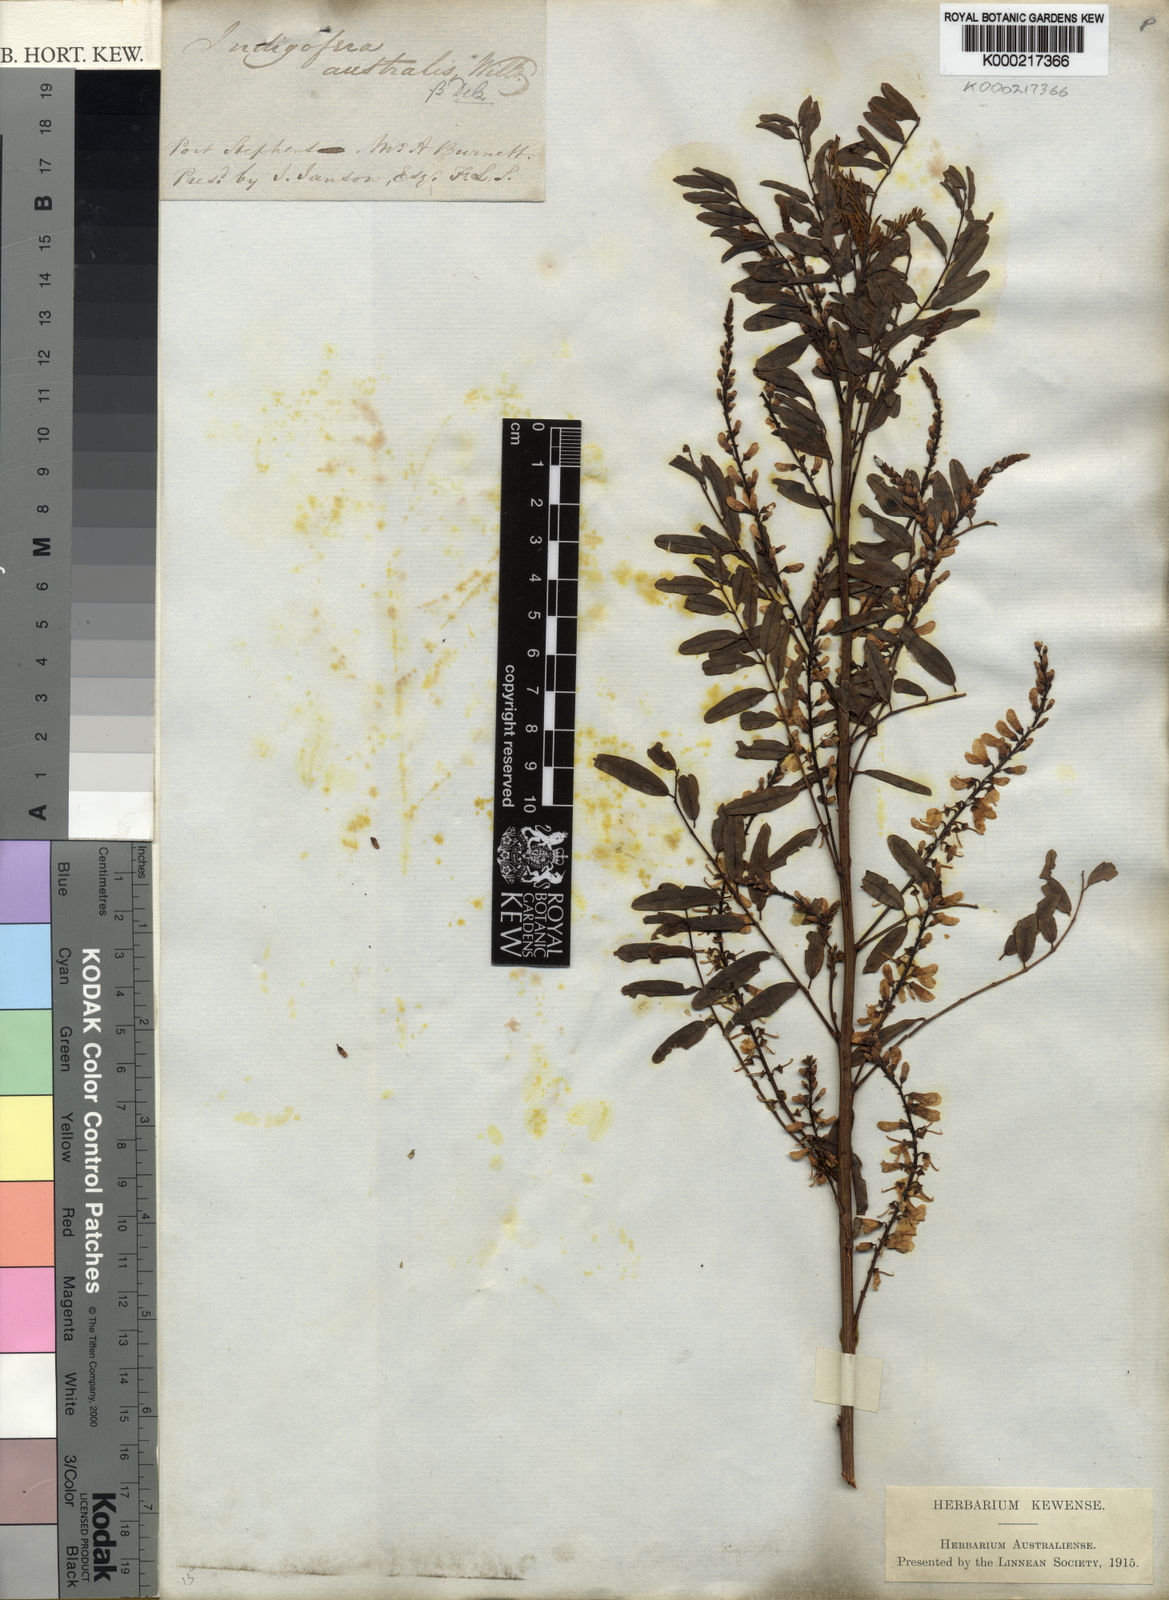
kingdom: Plantae
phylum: Tracheophyta
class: Magnoliopsida
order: Fabales
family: Fabaceae
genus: Indigofera
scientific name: Indigofera australis
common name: Australian indigo
